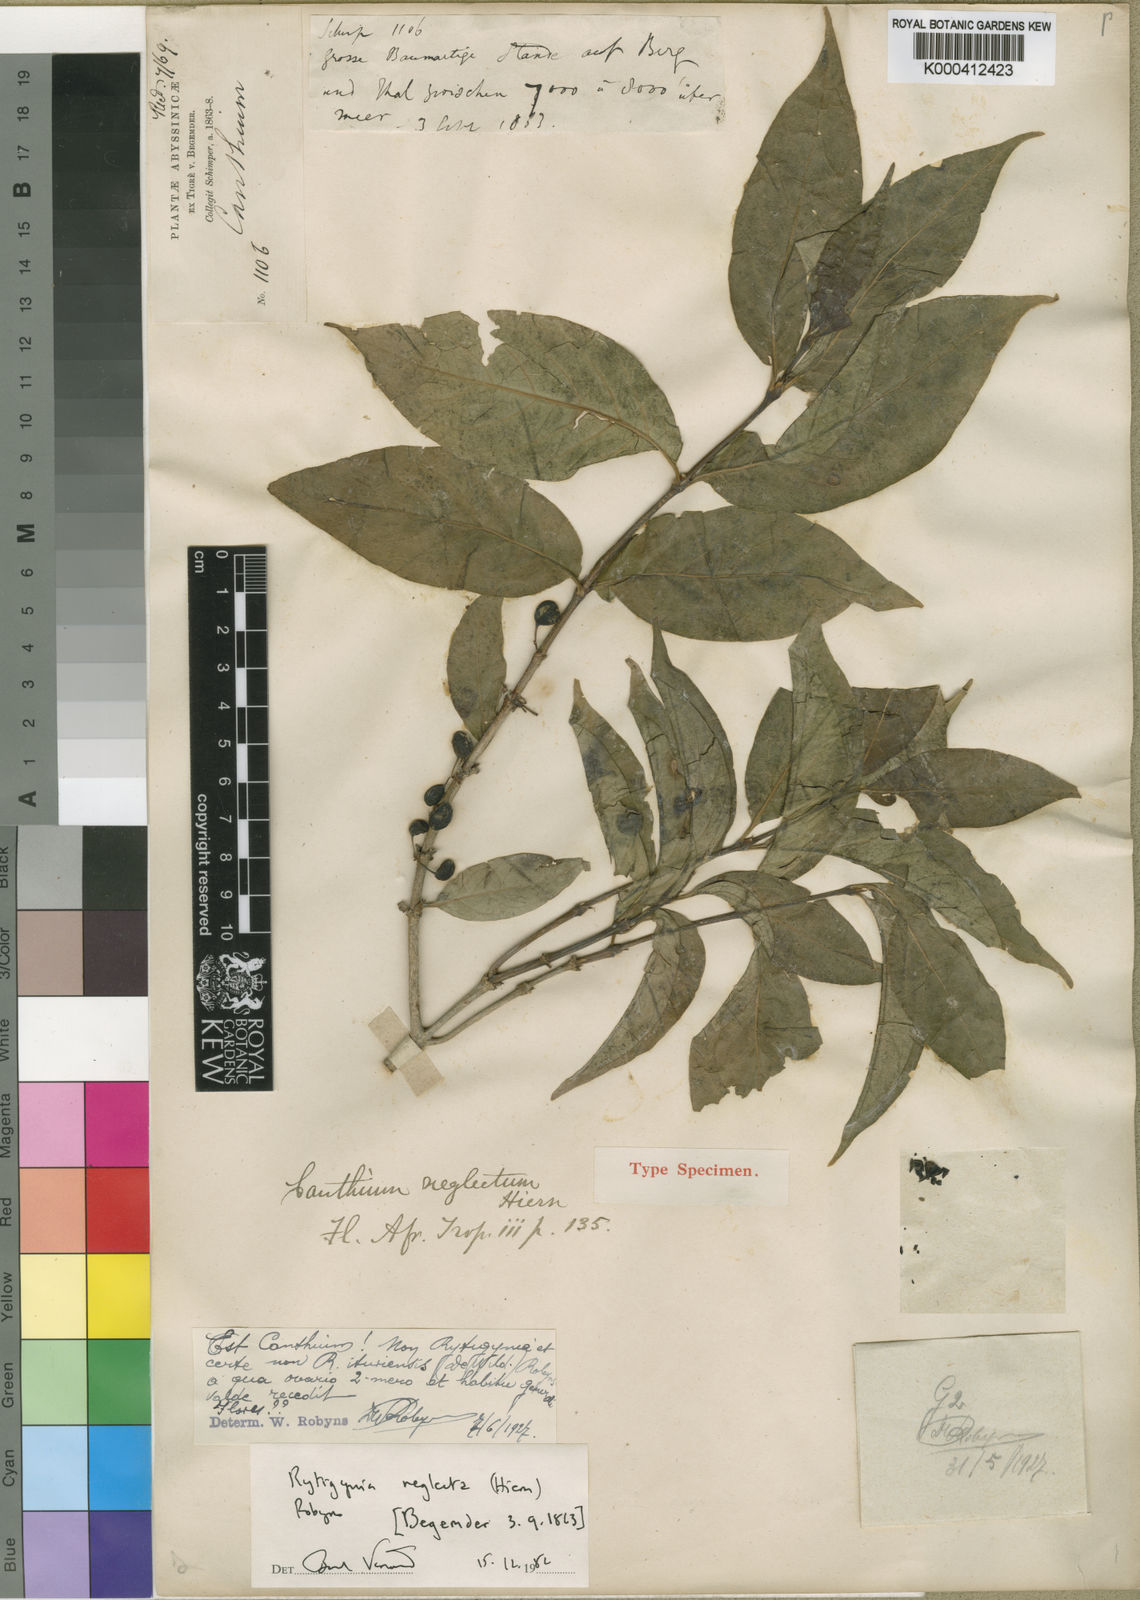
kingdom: Plantae
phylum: Tracheophyta
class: Magnoliopsida
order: Gentianales
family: Rubiaceae
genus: Rytigynia
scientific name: Rytigynia neglecta
